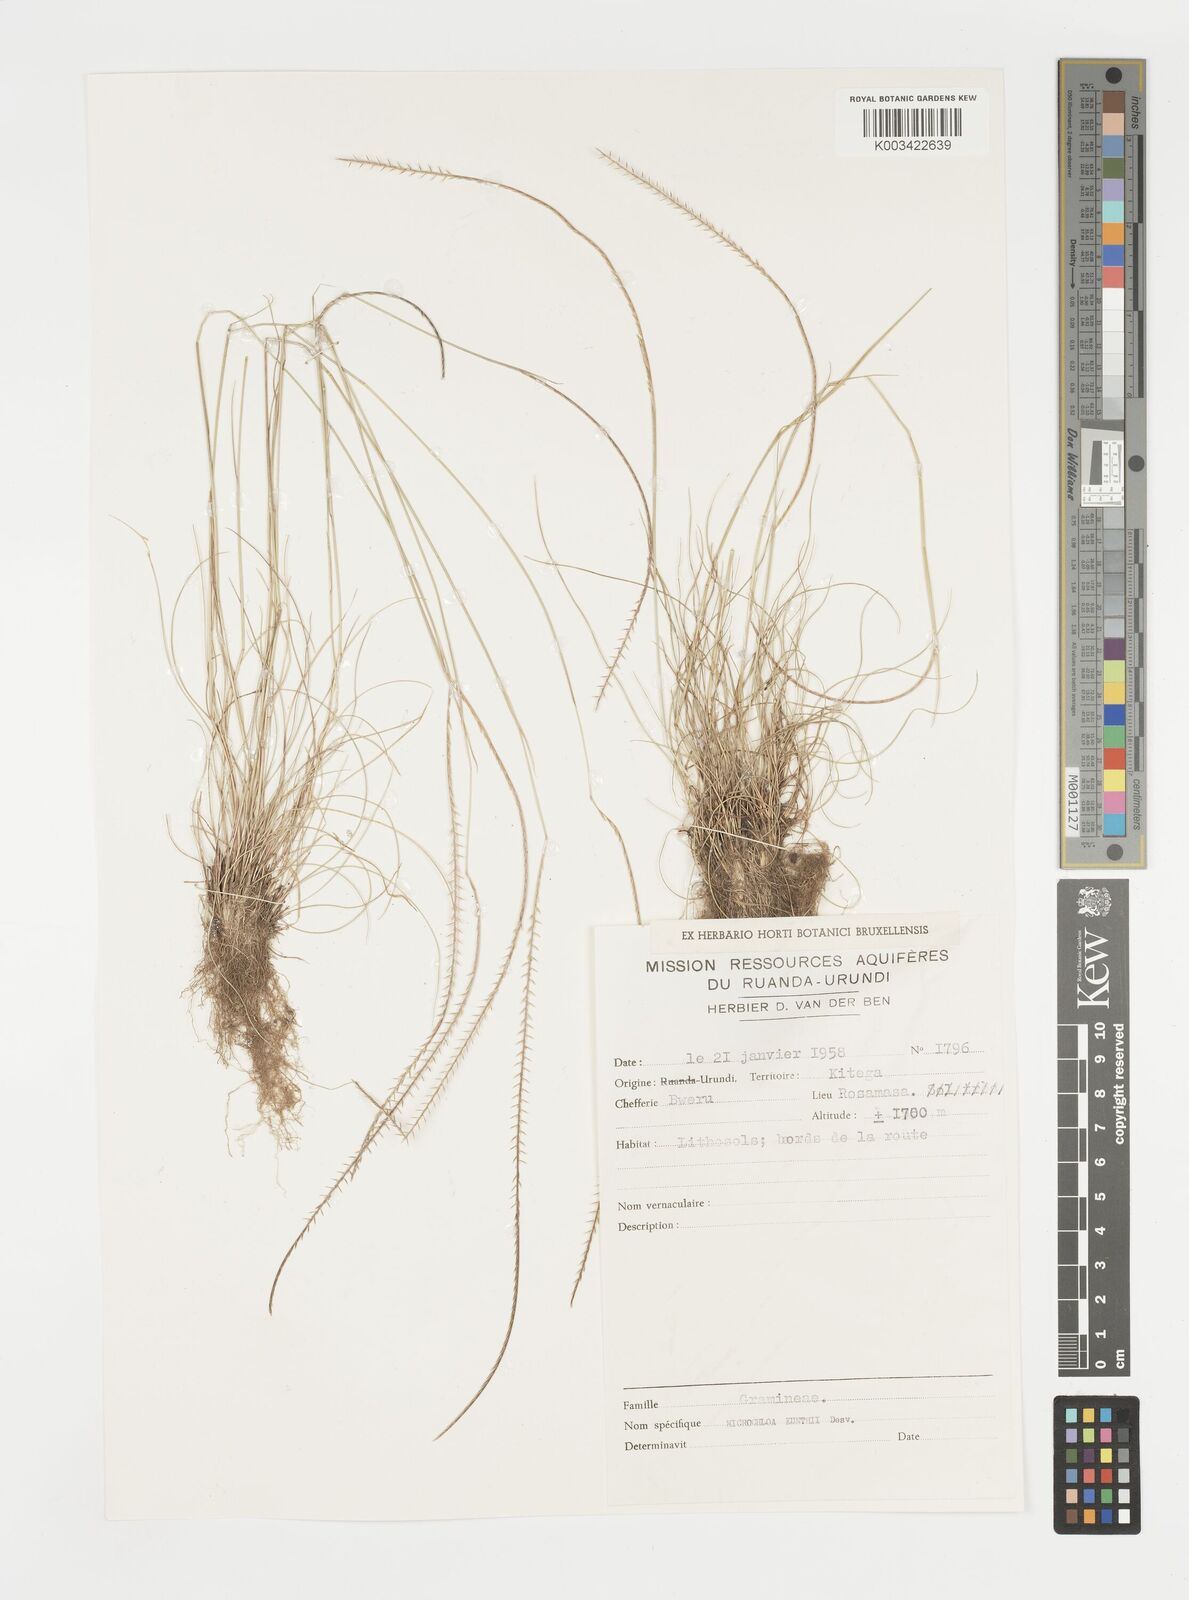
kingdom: Plantae
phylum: Tracheophyta
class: Liliopsida
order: Poales
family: Poaceae
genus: Microchloa
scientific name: Microchloa kunthii
